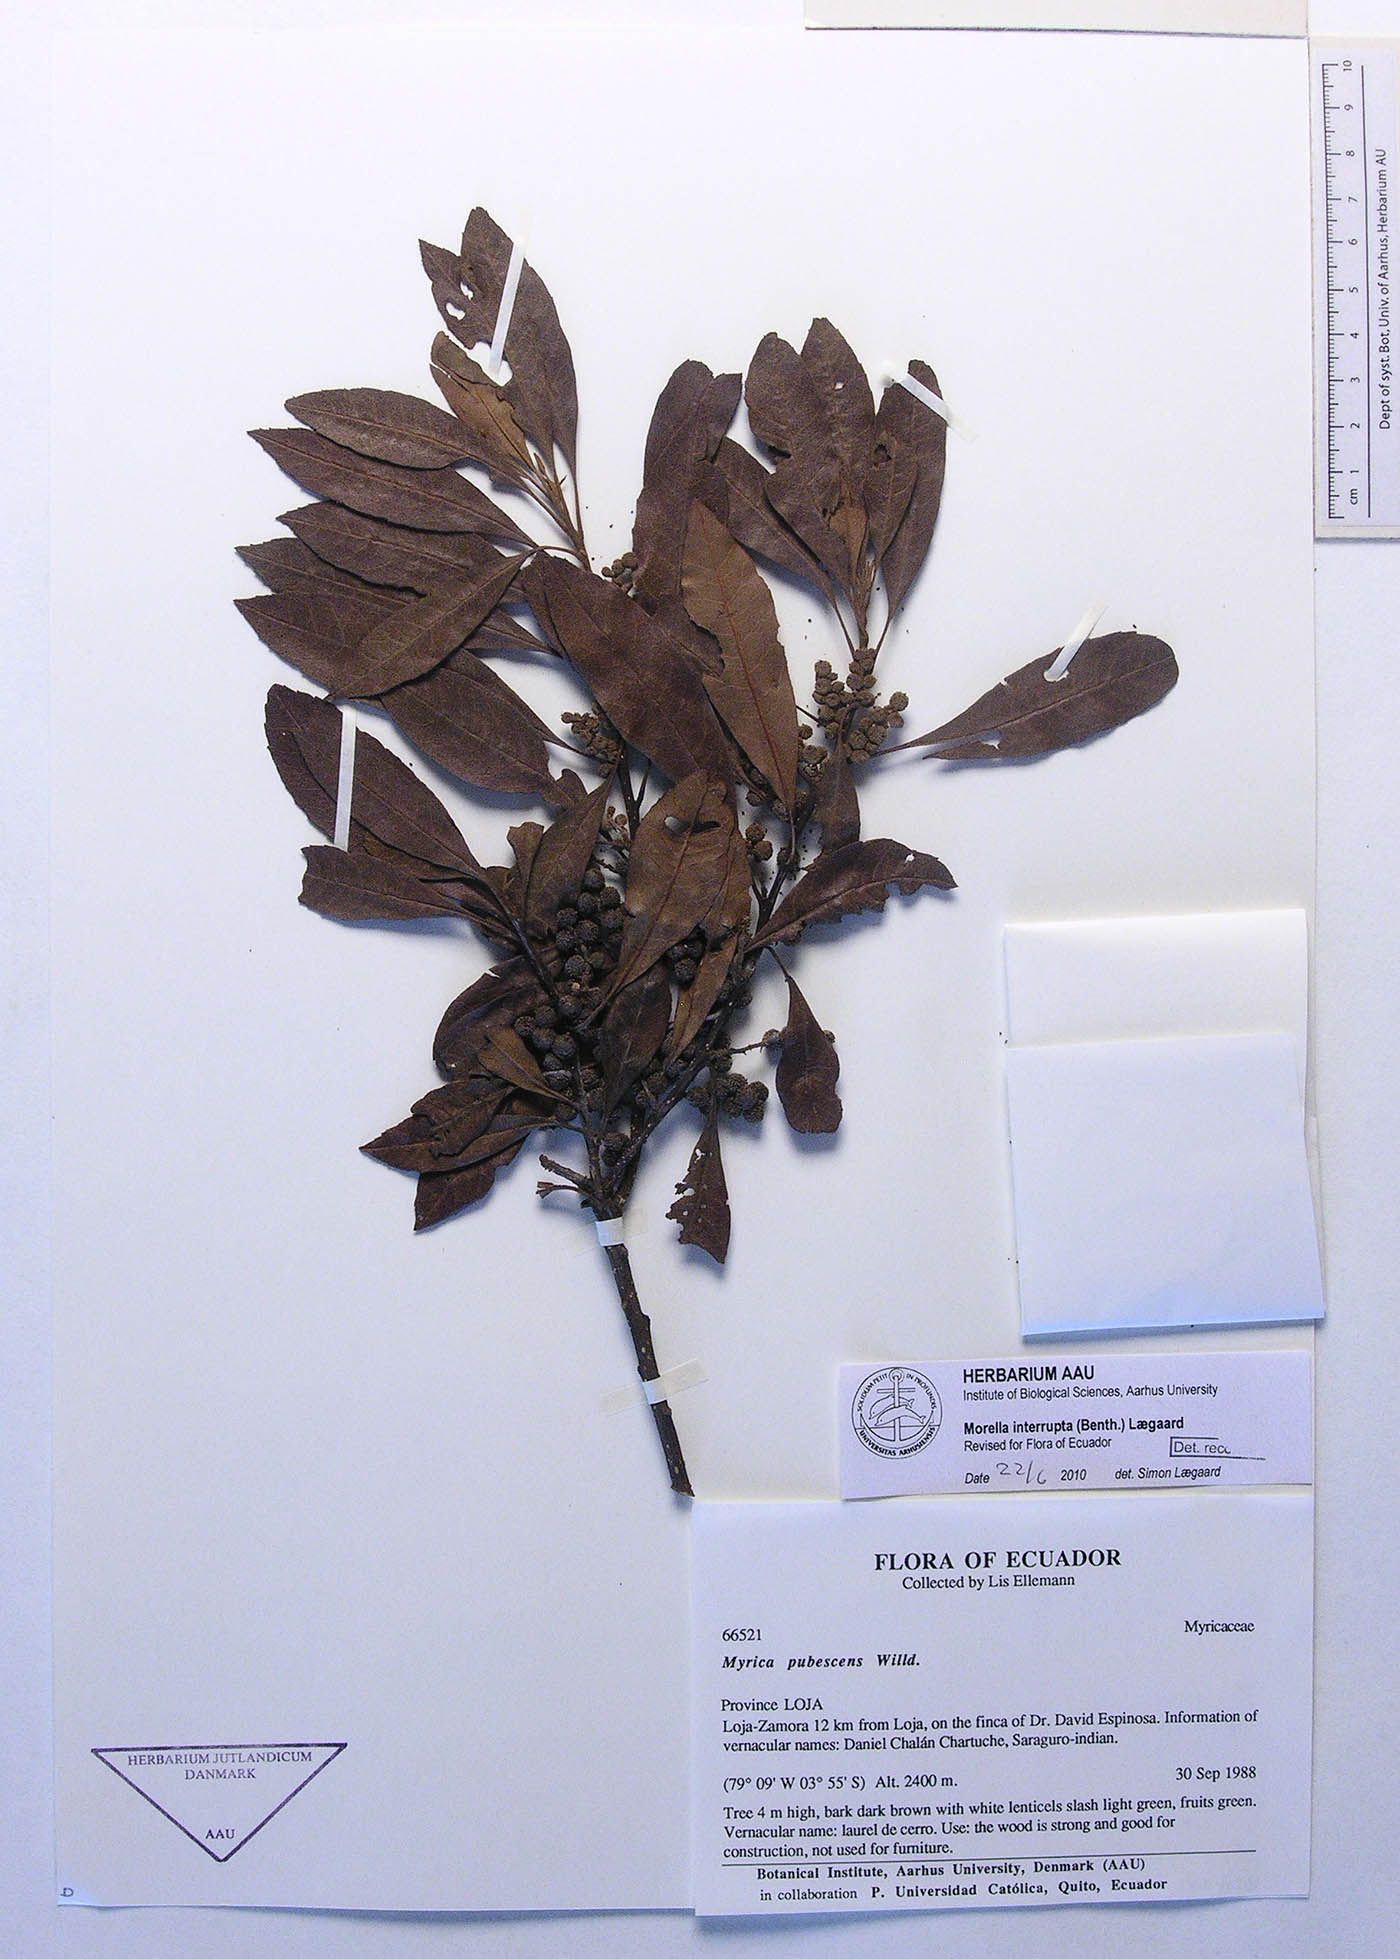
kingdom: Plantae
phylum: Tracheophyta
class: Magnoliopsida
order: Fagales
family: Myricaceae
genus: Morella
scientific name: Morella interrupta
